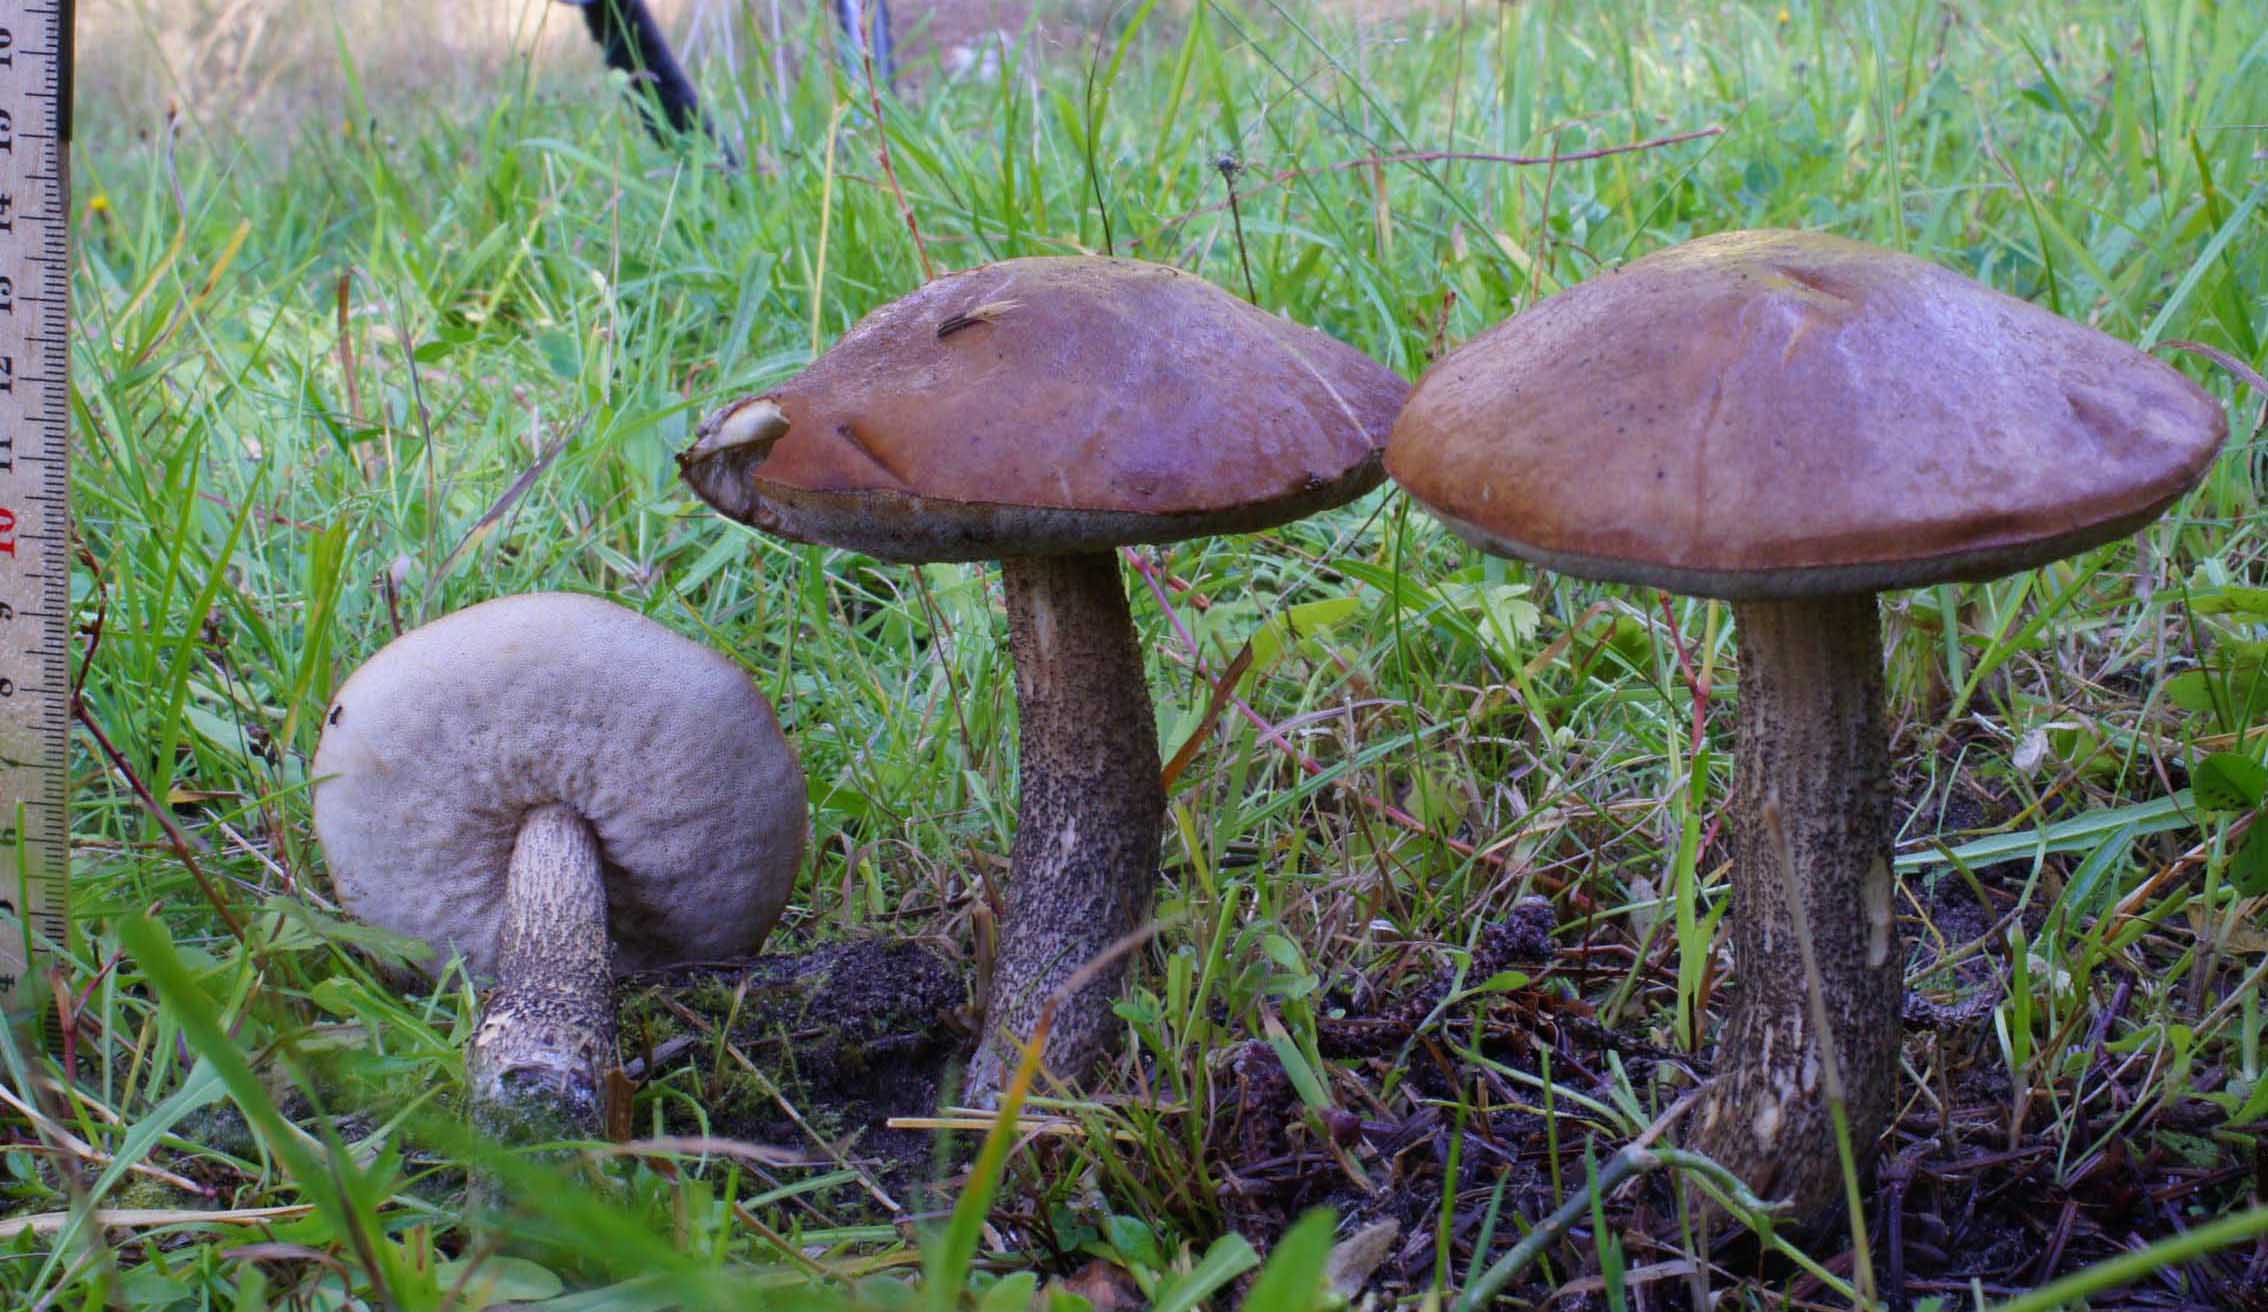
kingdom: Fungi
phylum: Basidiomycota
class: Agaricomycetes
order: Boletales
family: Boletaceae
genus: Leccinum
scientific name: Leccinum scabrum
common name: brun skælrørhat
